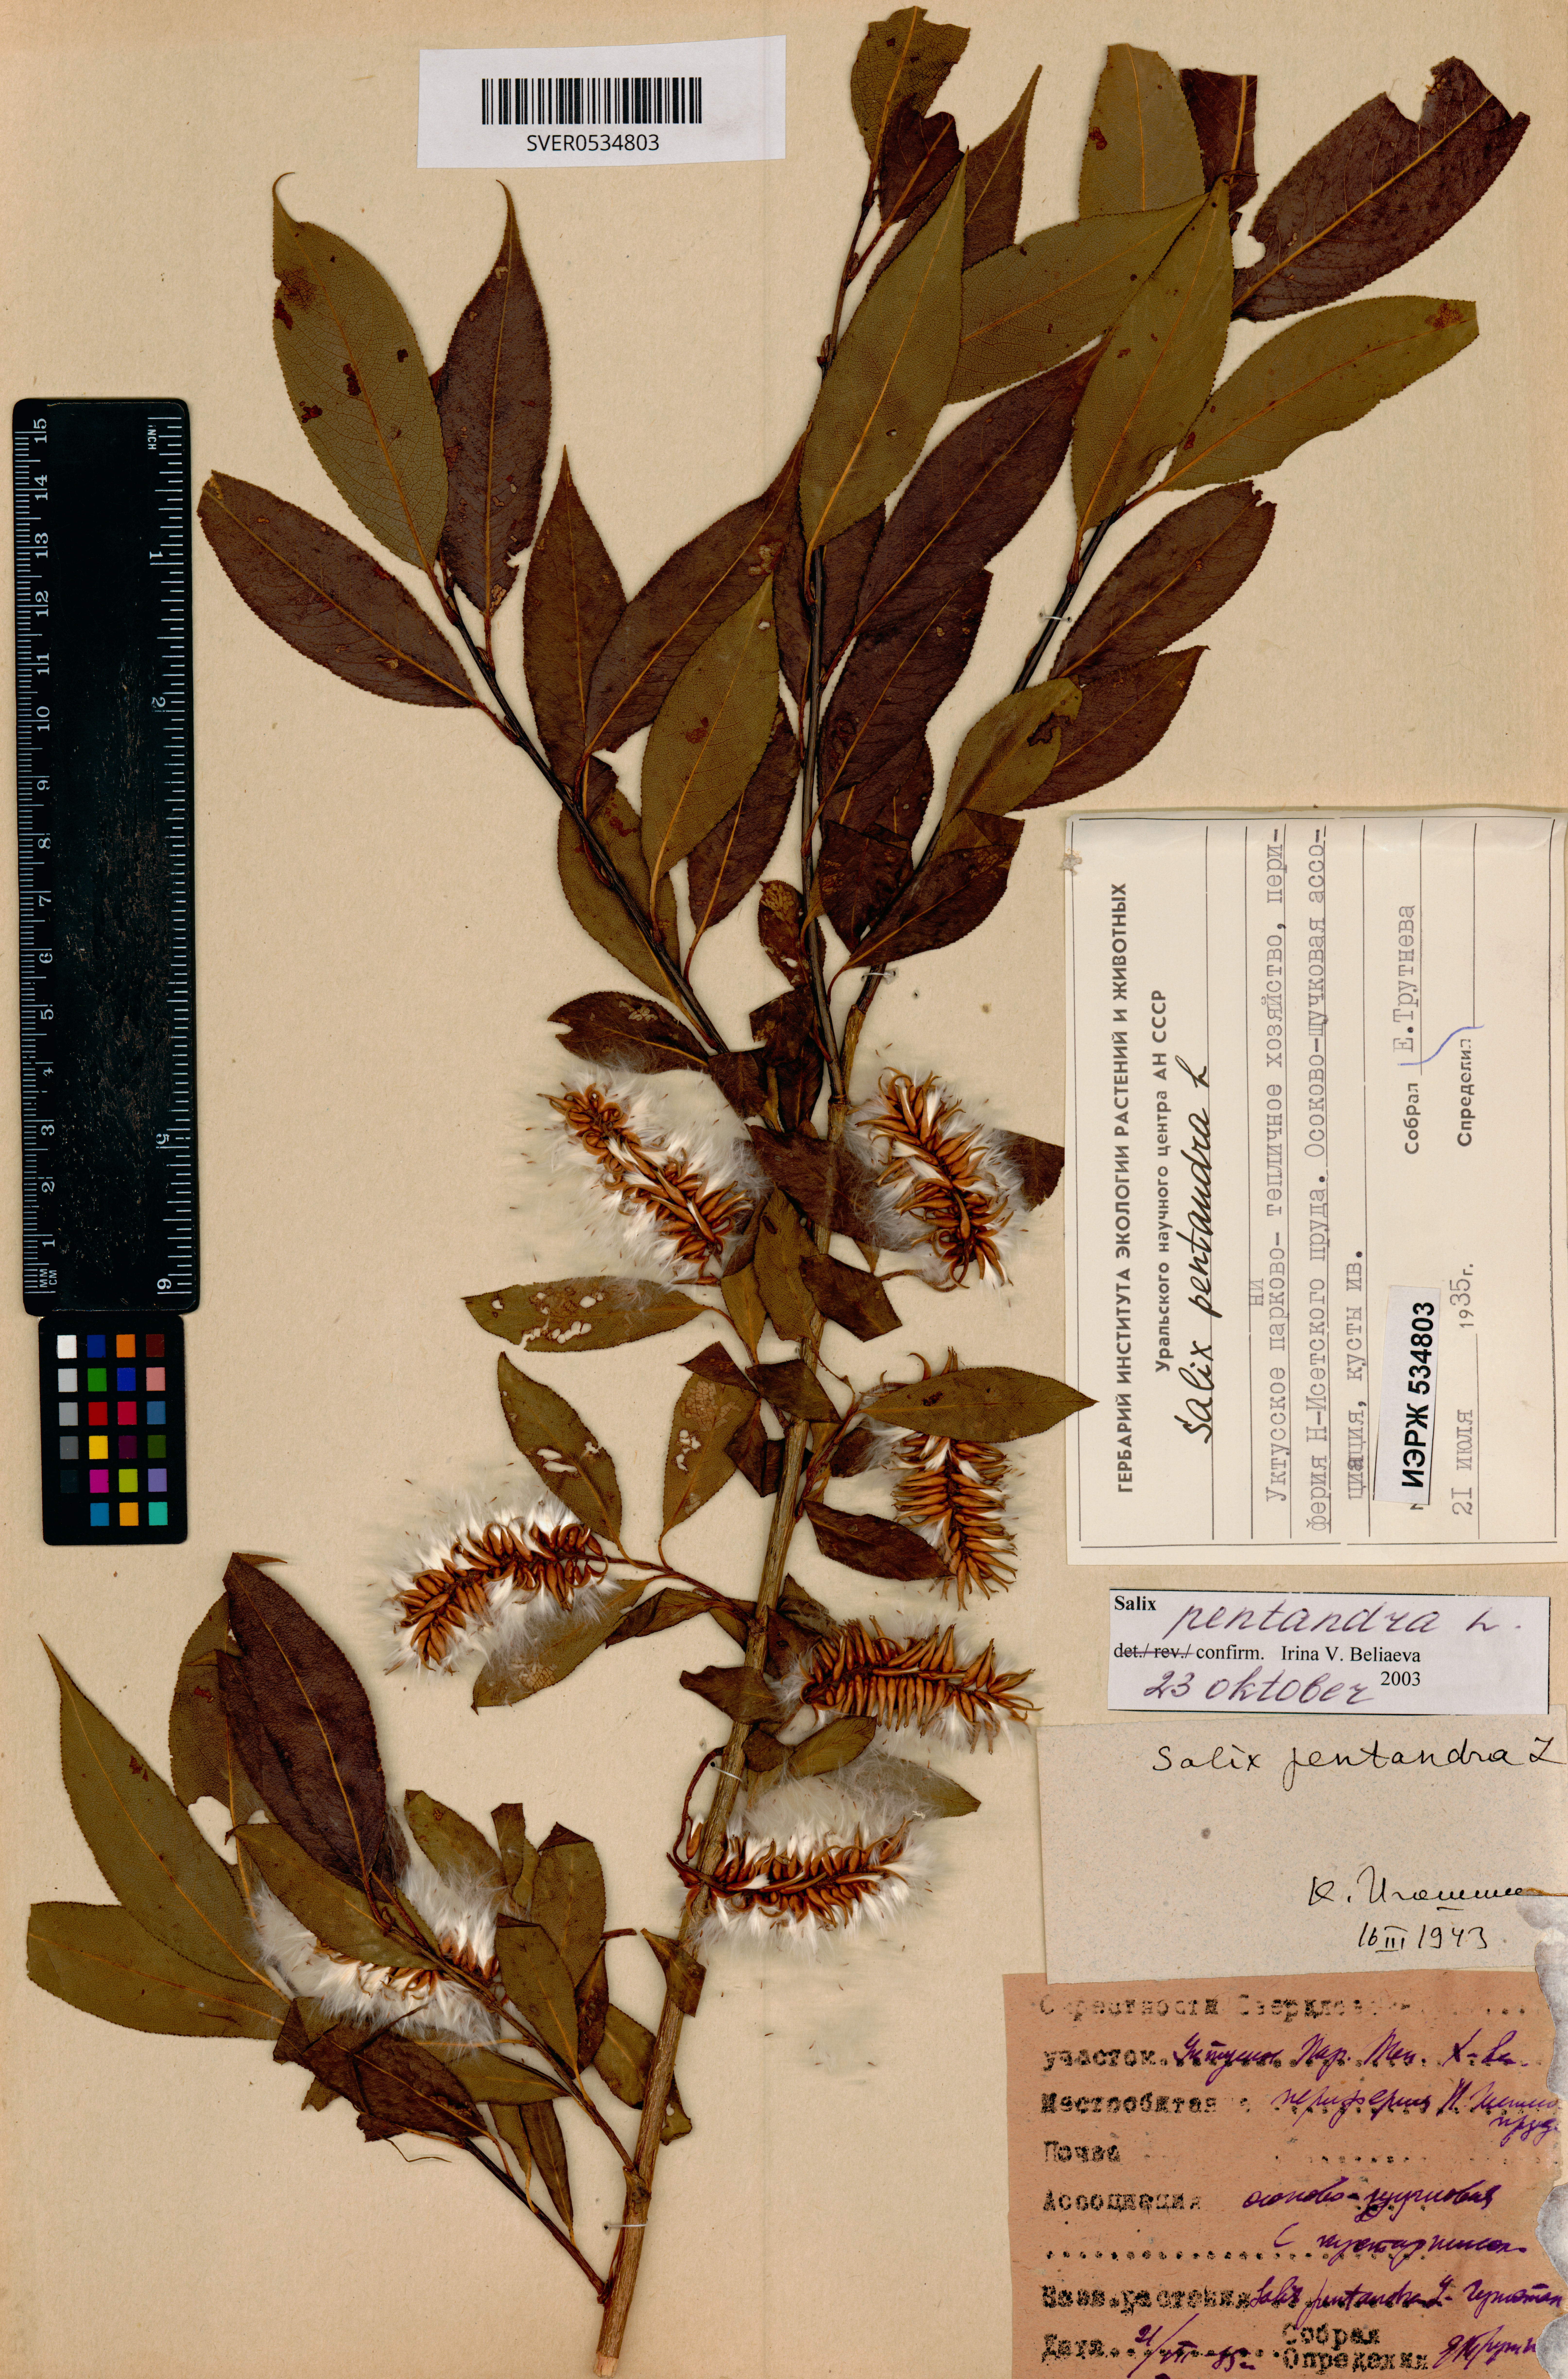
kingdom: Plantae
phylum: Tracheophyta
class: Magnoliopsida
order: Malpighiales
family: Salicaceae
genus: Salix
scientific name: Salix pentandra
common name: Bay willow
